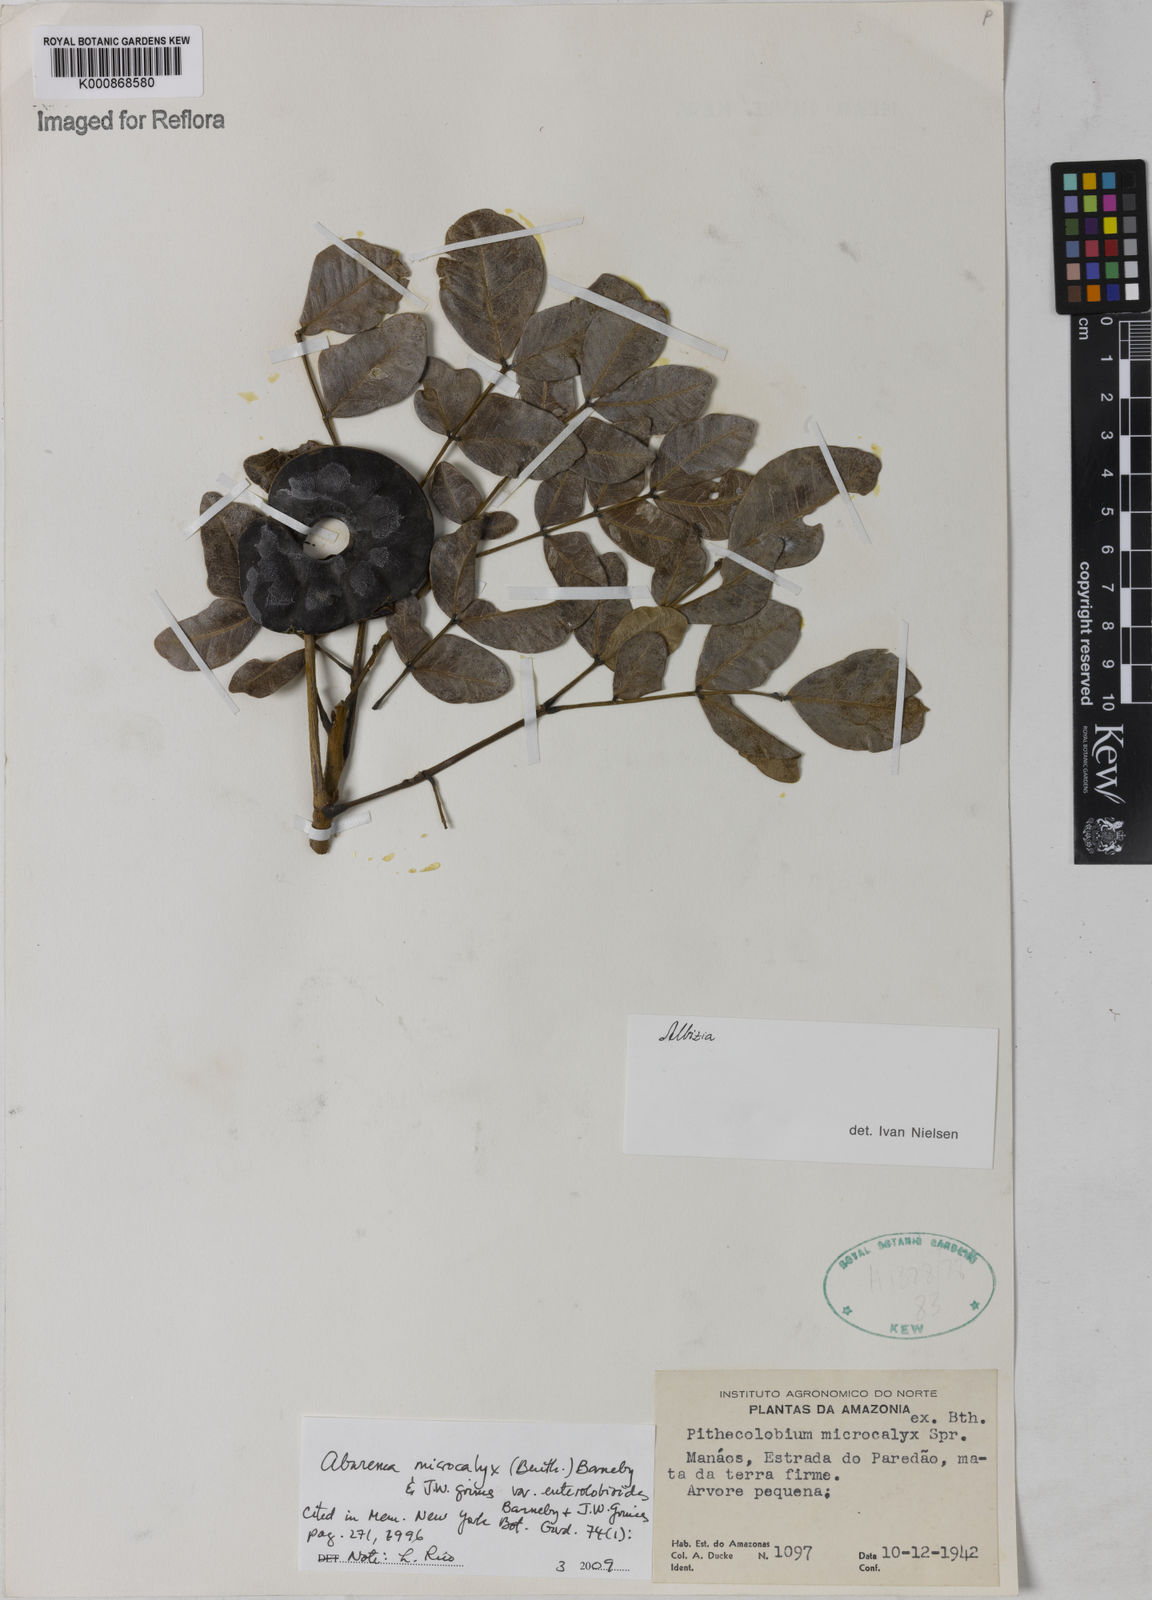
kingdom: Plantae
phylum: Tracheophyta
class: Magnoliopsida
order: Fabales
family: Fabaceae
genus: Jupunba
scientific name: Jupunba microcalyx
